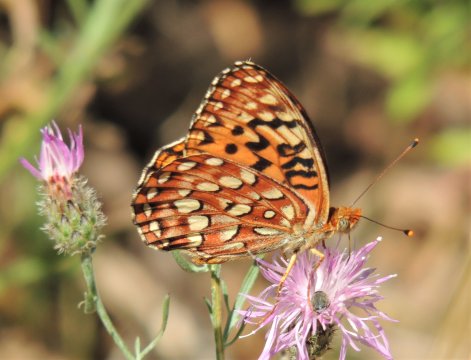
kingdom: Animalia
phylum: Arthropoda
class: Insecta
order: Lepidoptera
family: Nymphalidae
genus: Speyeria
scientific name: Speyeria hydaspe
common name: Hydaspe Fritillary
